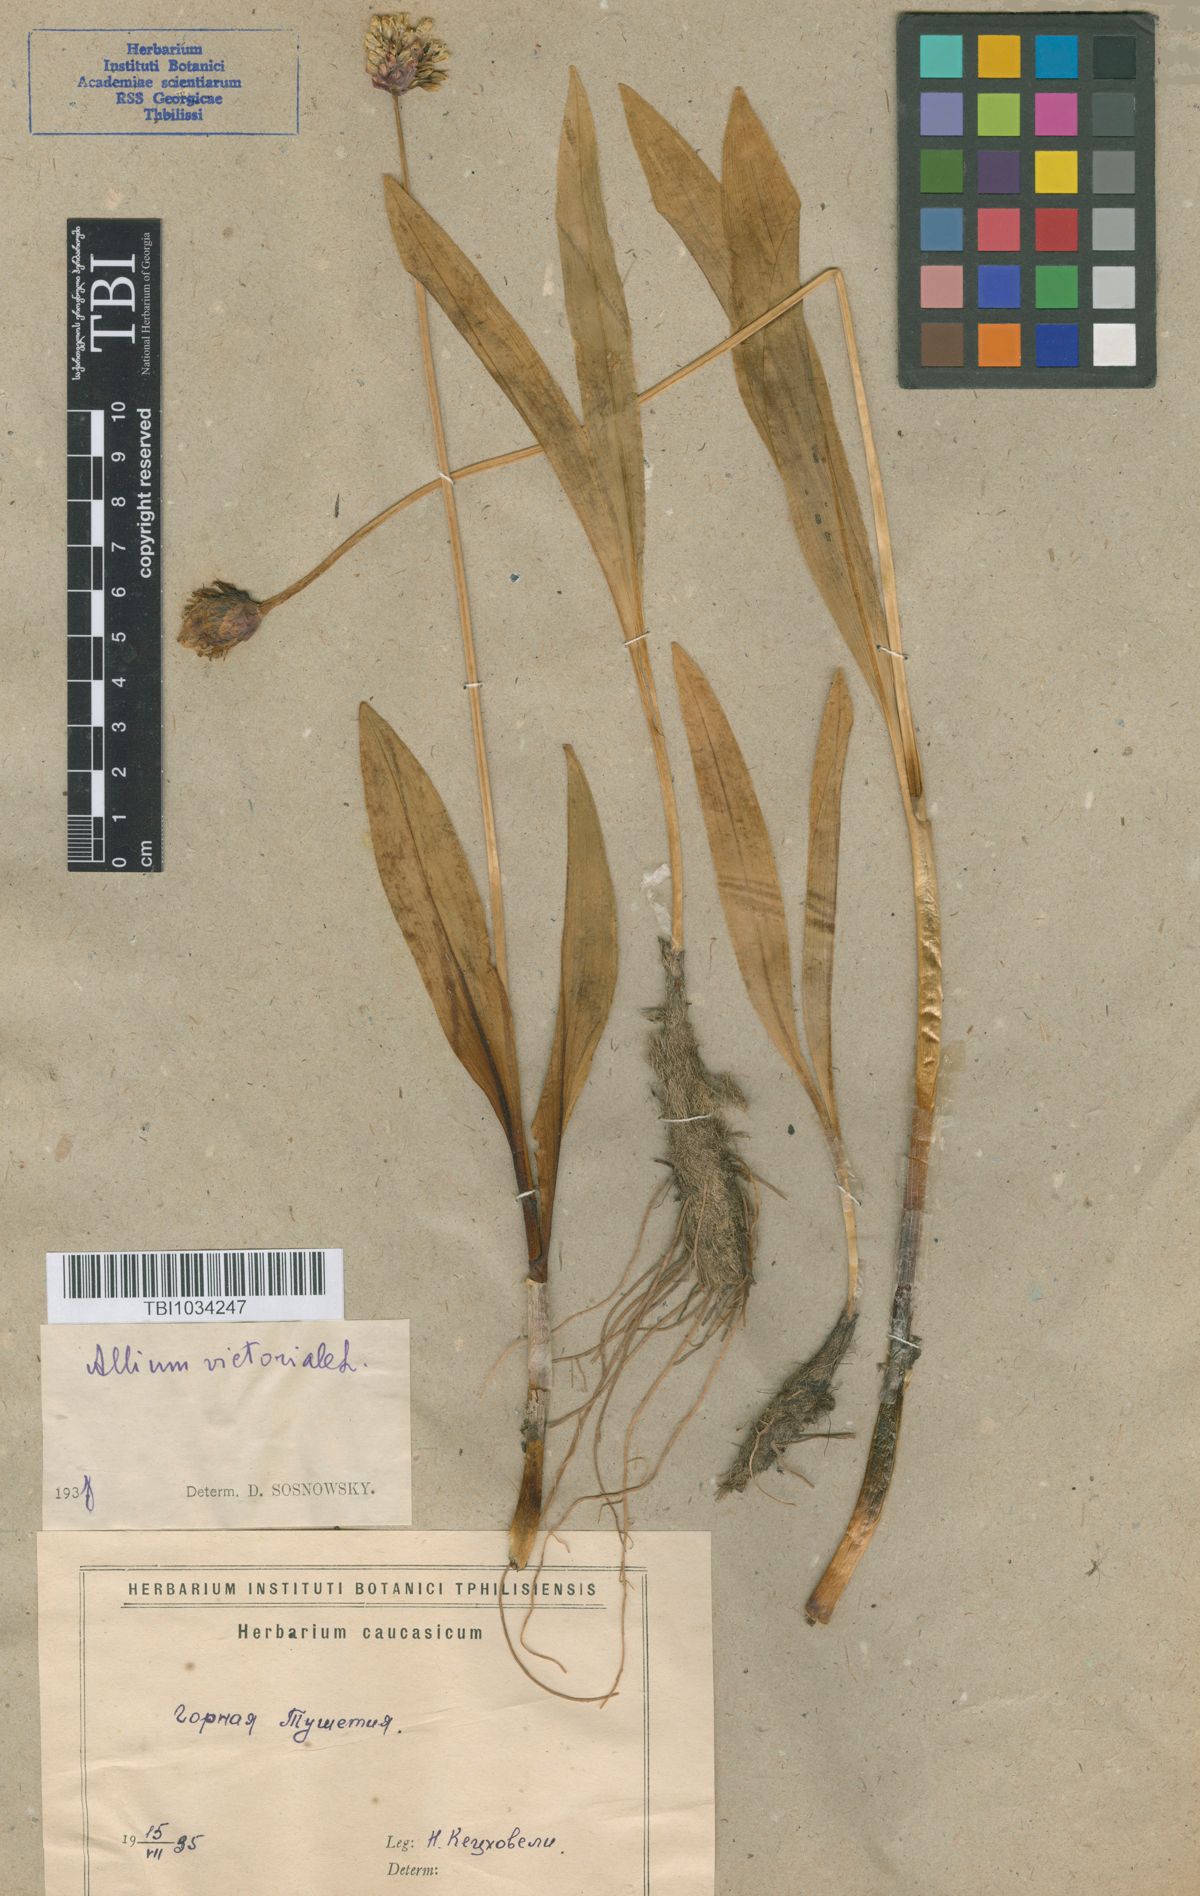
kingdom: Plantae
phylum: Tracheophyta
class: Liliopsida
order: Asparagales
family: Amaryllidaceae
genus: Allium
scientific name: Allium victorialis
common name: Alpine leek
